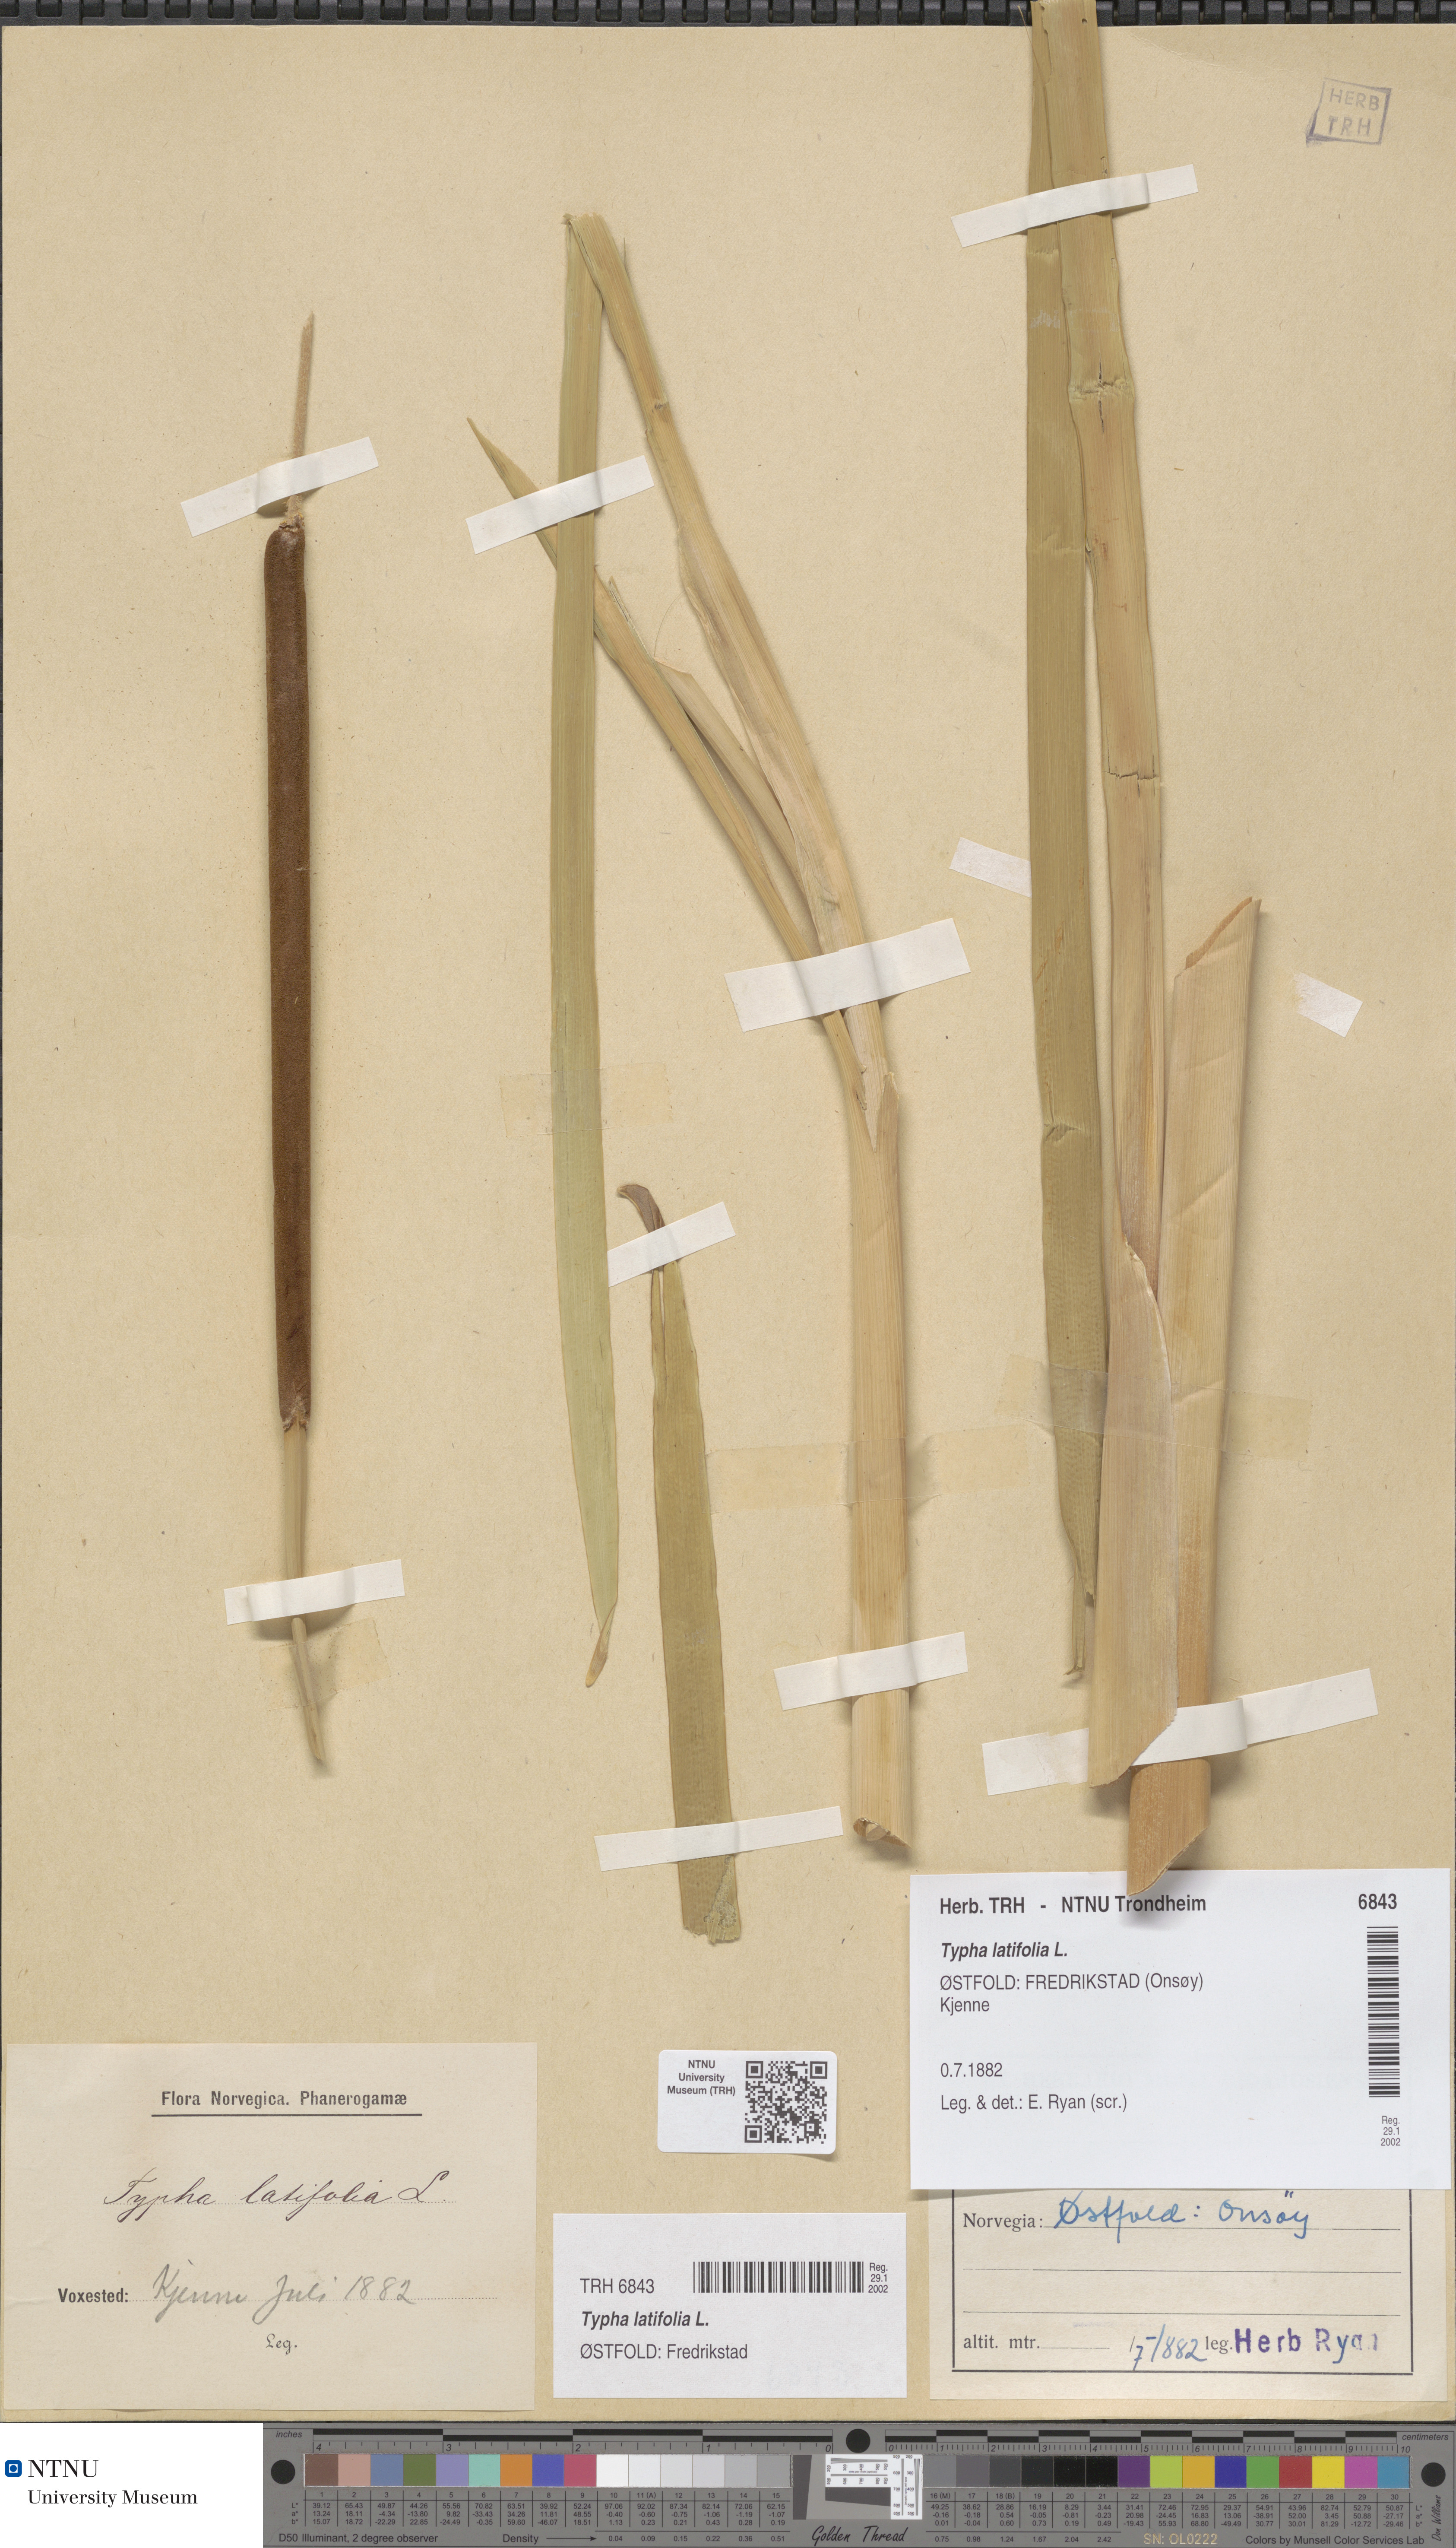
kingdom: Plantae
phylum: Tracheophyta
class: Liliopsida
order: Poales
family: Typhaceae
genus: Typha
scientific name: Typha latifolia
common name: Broadleaf cattail
